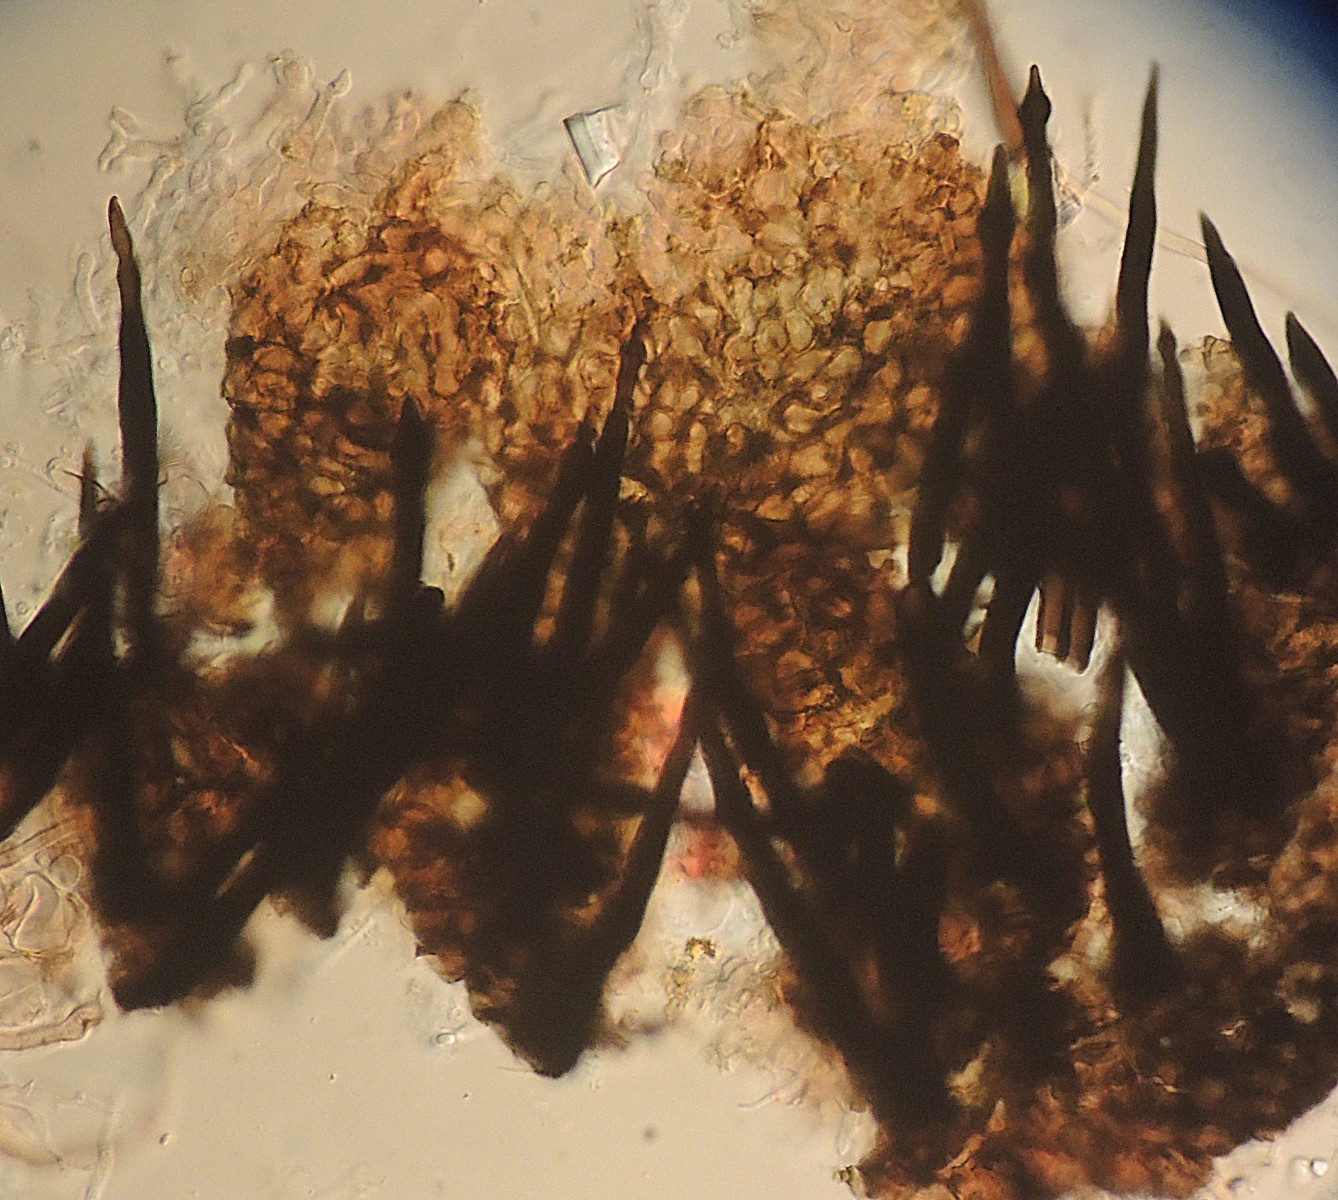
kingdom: Fungi
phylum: Ascomycota
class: Dothideomycetes
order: Tubeufiales
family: Tubeufiaceae
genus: Acanthostigmina
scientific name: Acanthostigmina minuta
